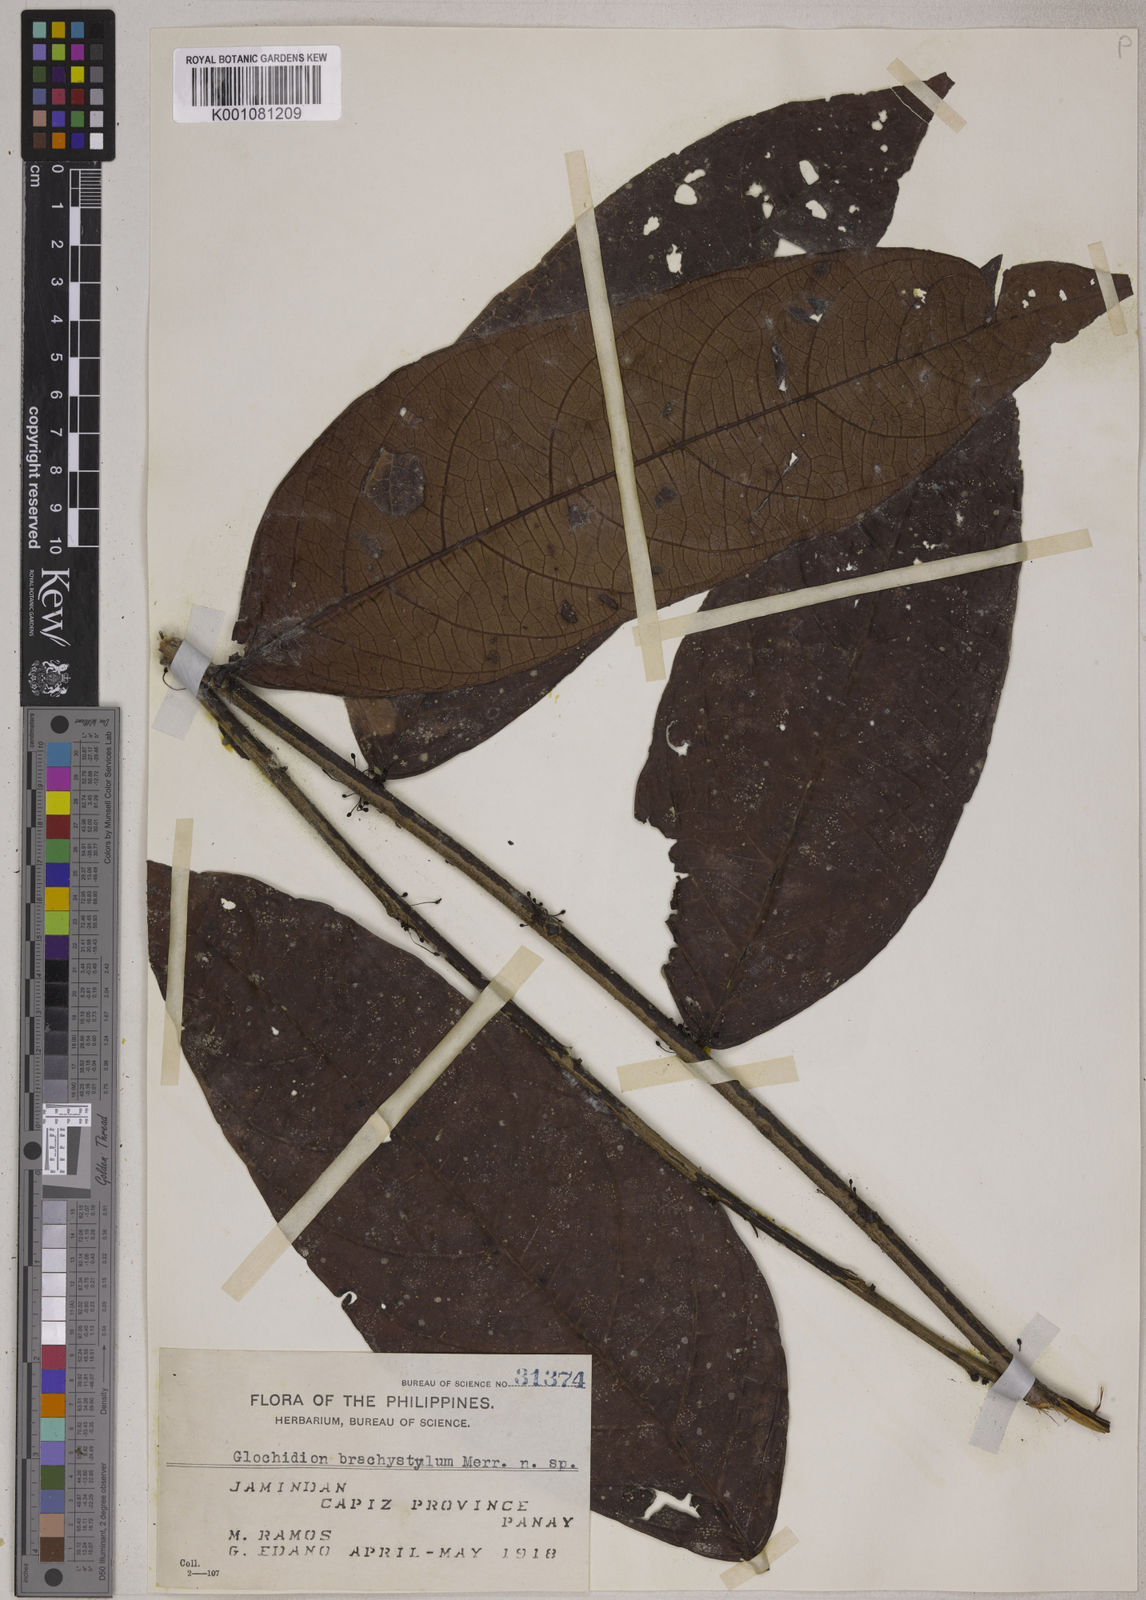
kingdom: Plantae
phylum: Tracheophyta
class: Magnoliopsida
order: Malpighiales
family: Phyllanthaceae
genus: Glochidion
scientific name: Glochidion album
